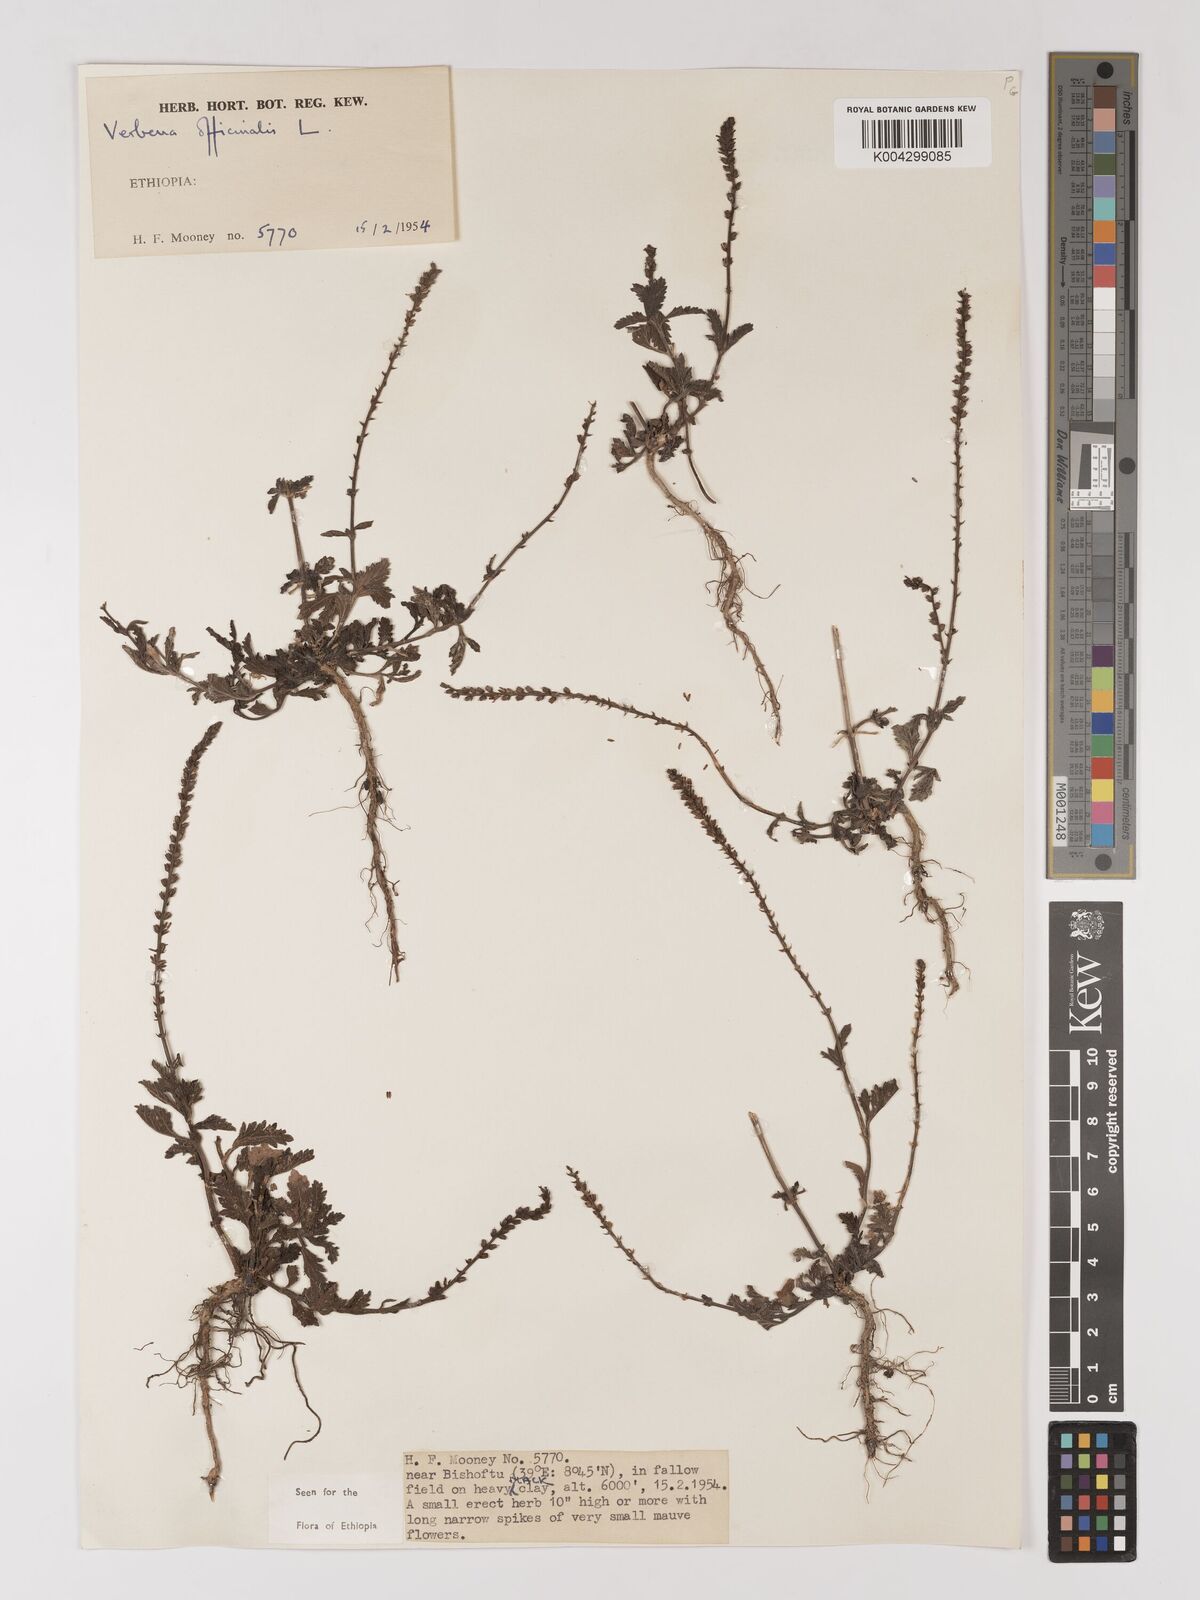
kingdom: Plantae
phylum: Tracheophyta
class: Magnoliopsida
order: Lamiales
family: Verbenaceae
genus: Verbena
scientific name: Verbena officinalis
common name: Vervain
